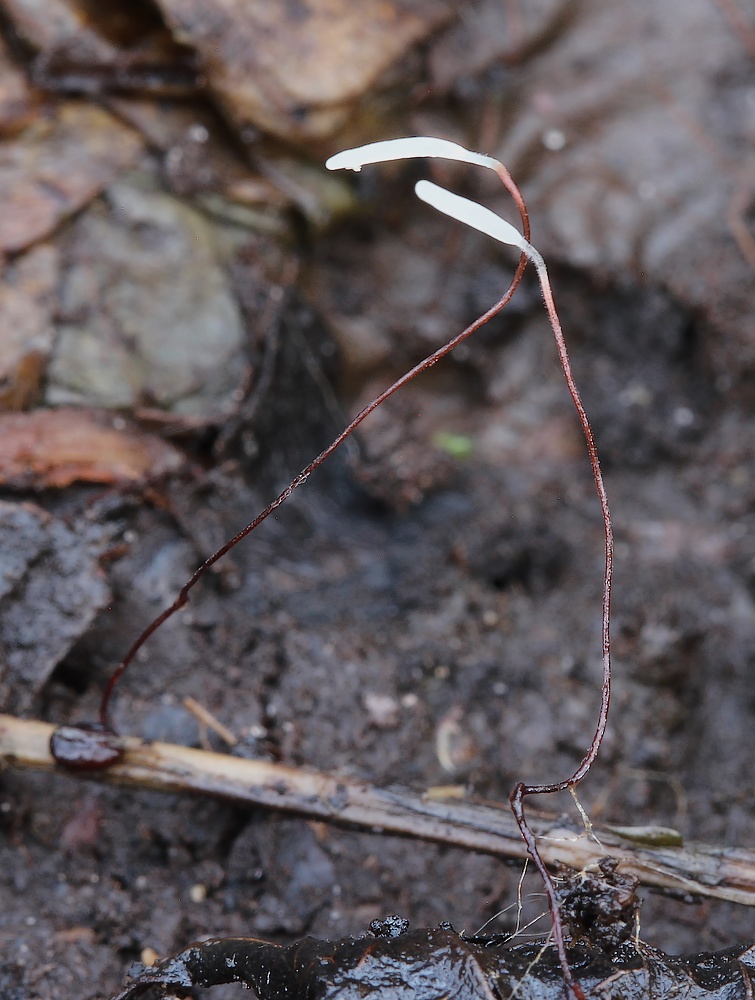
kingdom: Fungi
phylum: Basidiomycota
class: Agaricomycetes
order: Agaricales
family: Typhulaceae
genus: Typhula
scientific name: Typhula erythropus
